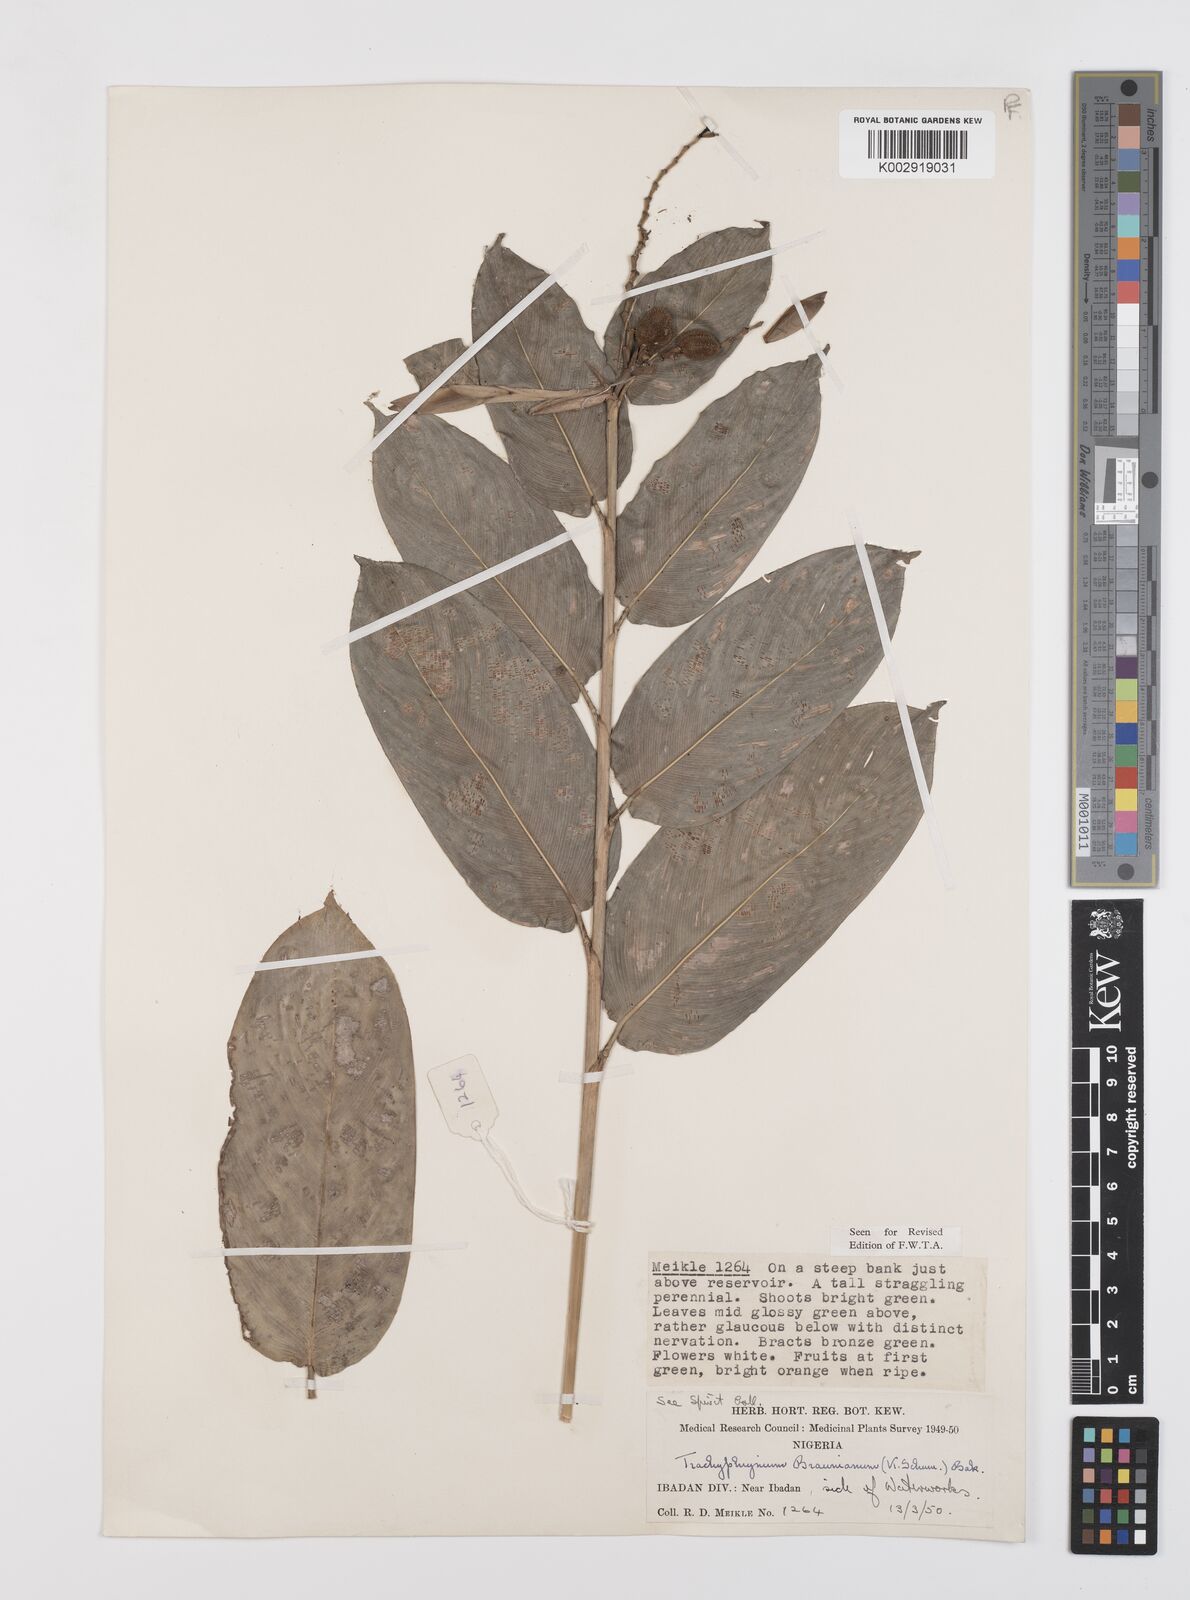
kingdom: Plantae
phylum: Tracheophyta
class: Liliopsida
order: Zingiberales
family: Marantaceae
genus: Trachyphrynium
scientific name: Trachyphrynium braunianum
